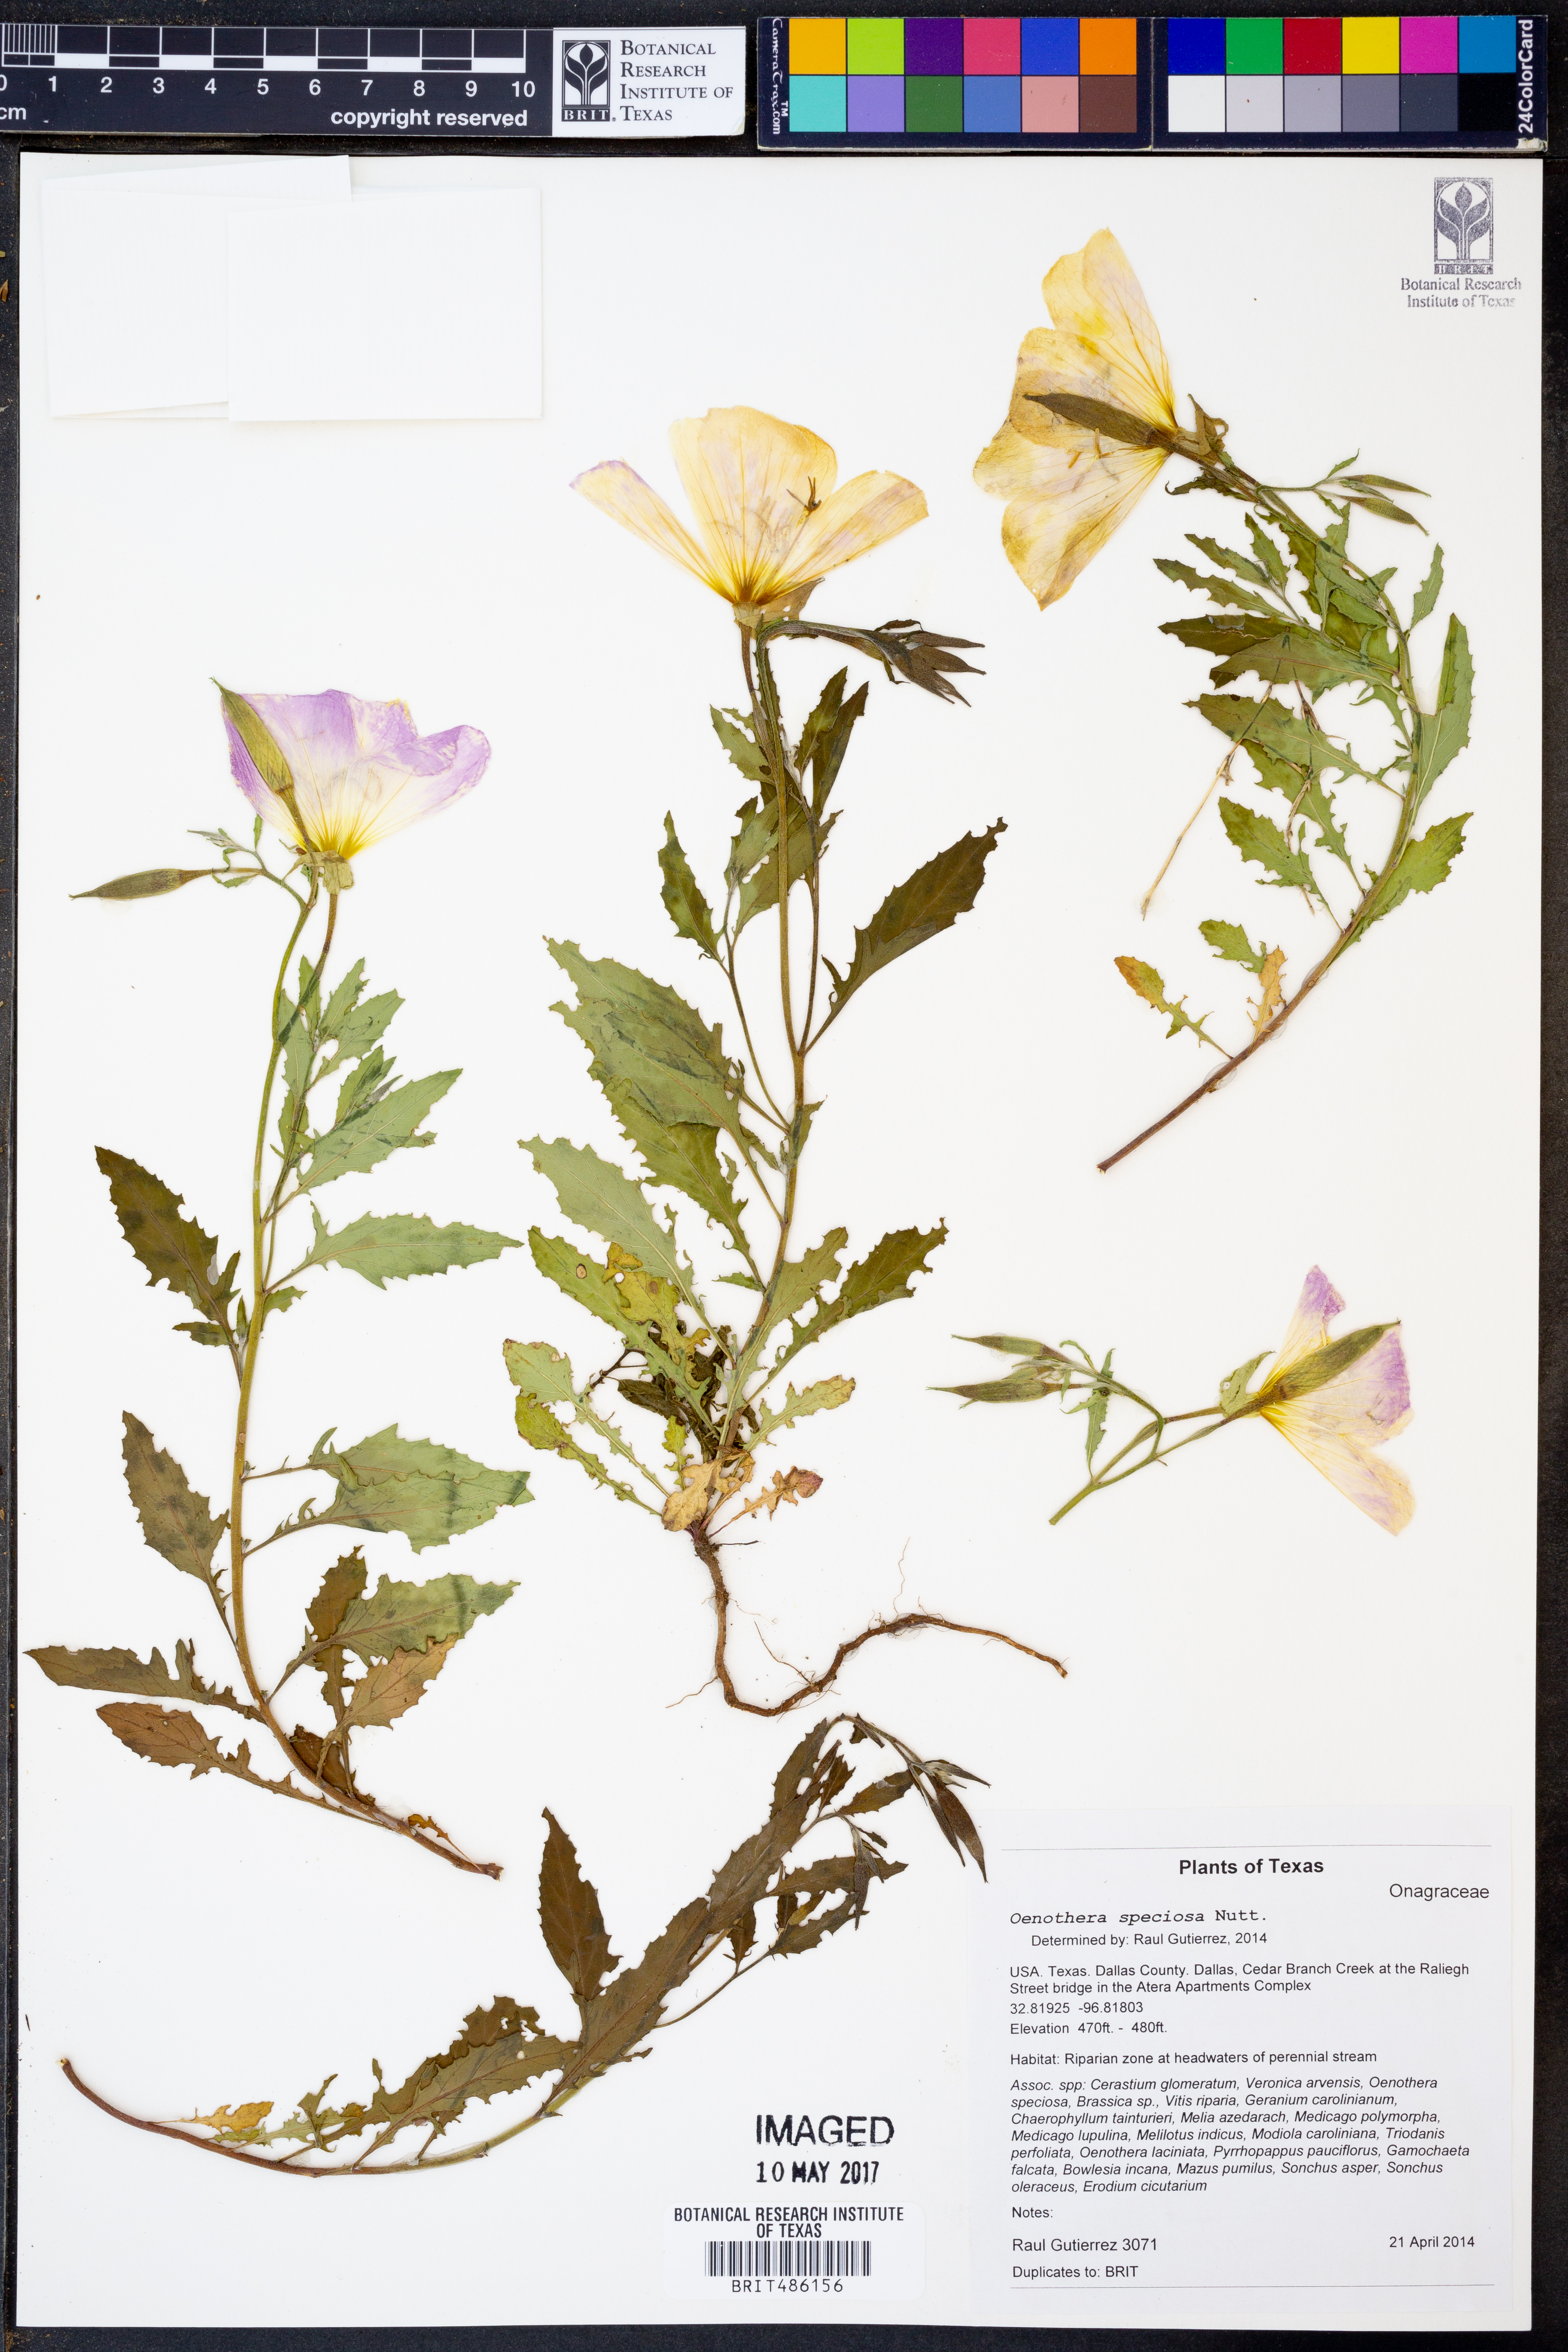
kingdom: Plantae
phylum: Tracheophyta
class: Magnoliopsida
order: Myrtales
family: Onagraceae
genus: Oenothera
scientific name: Oenothera speciosa
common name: White evening-primrose
